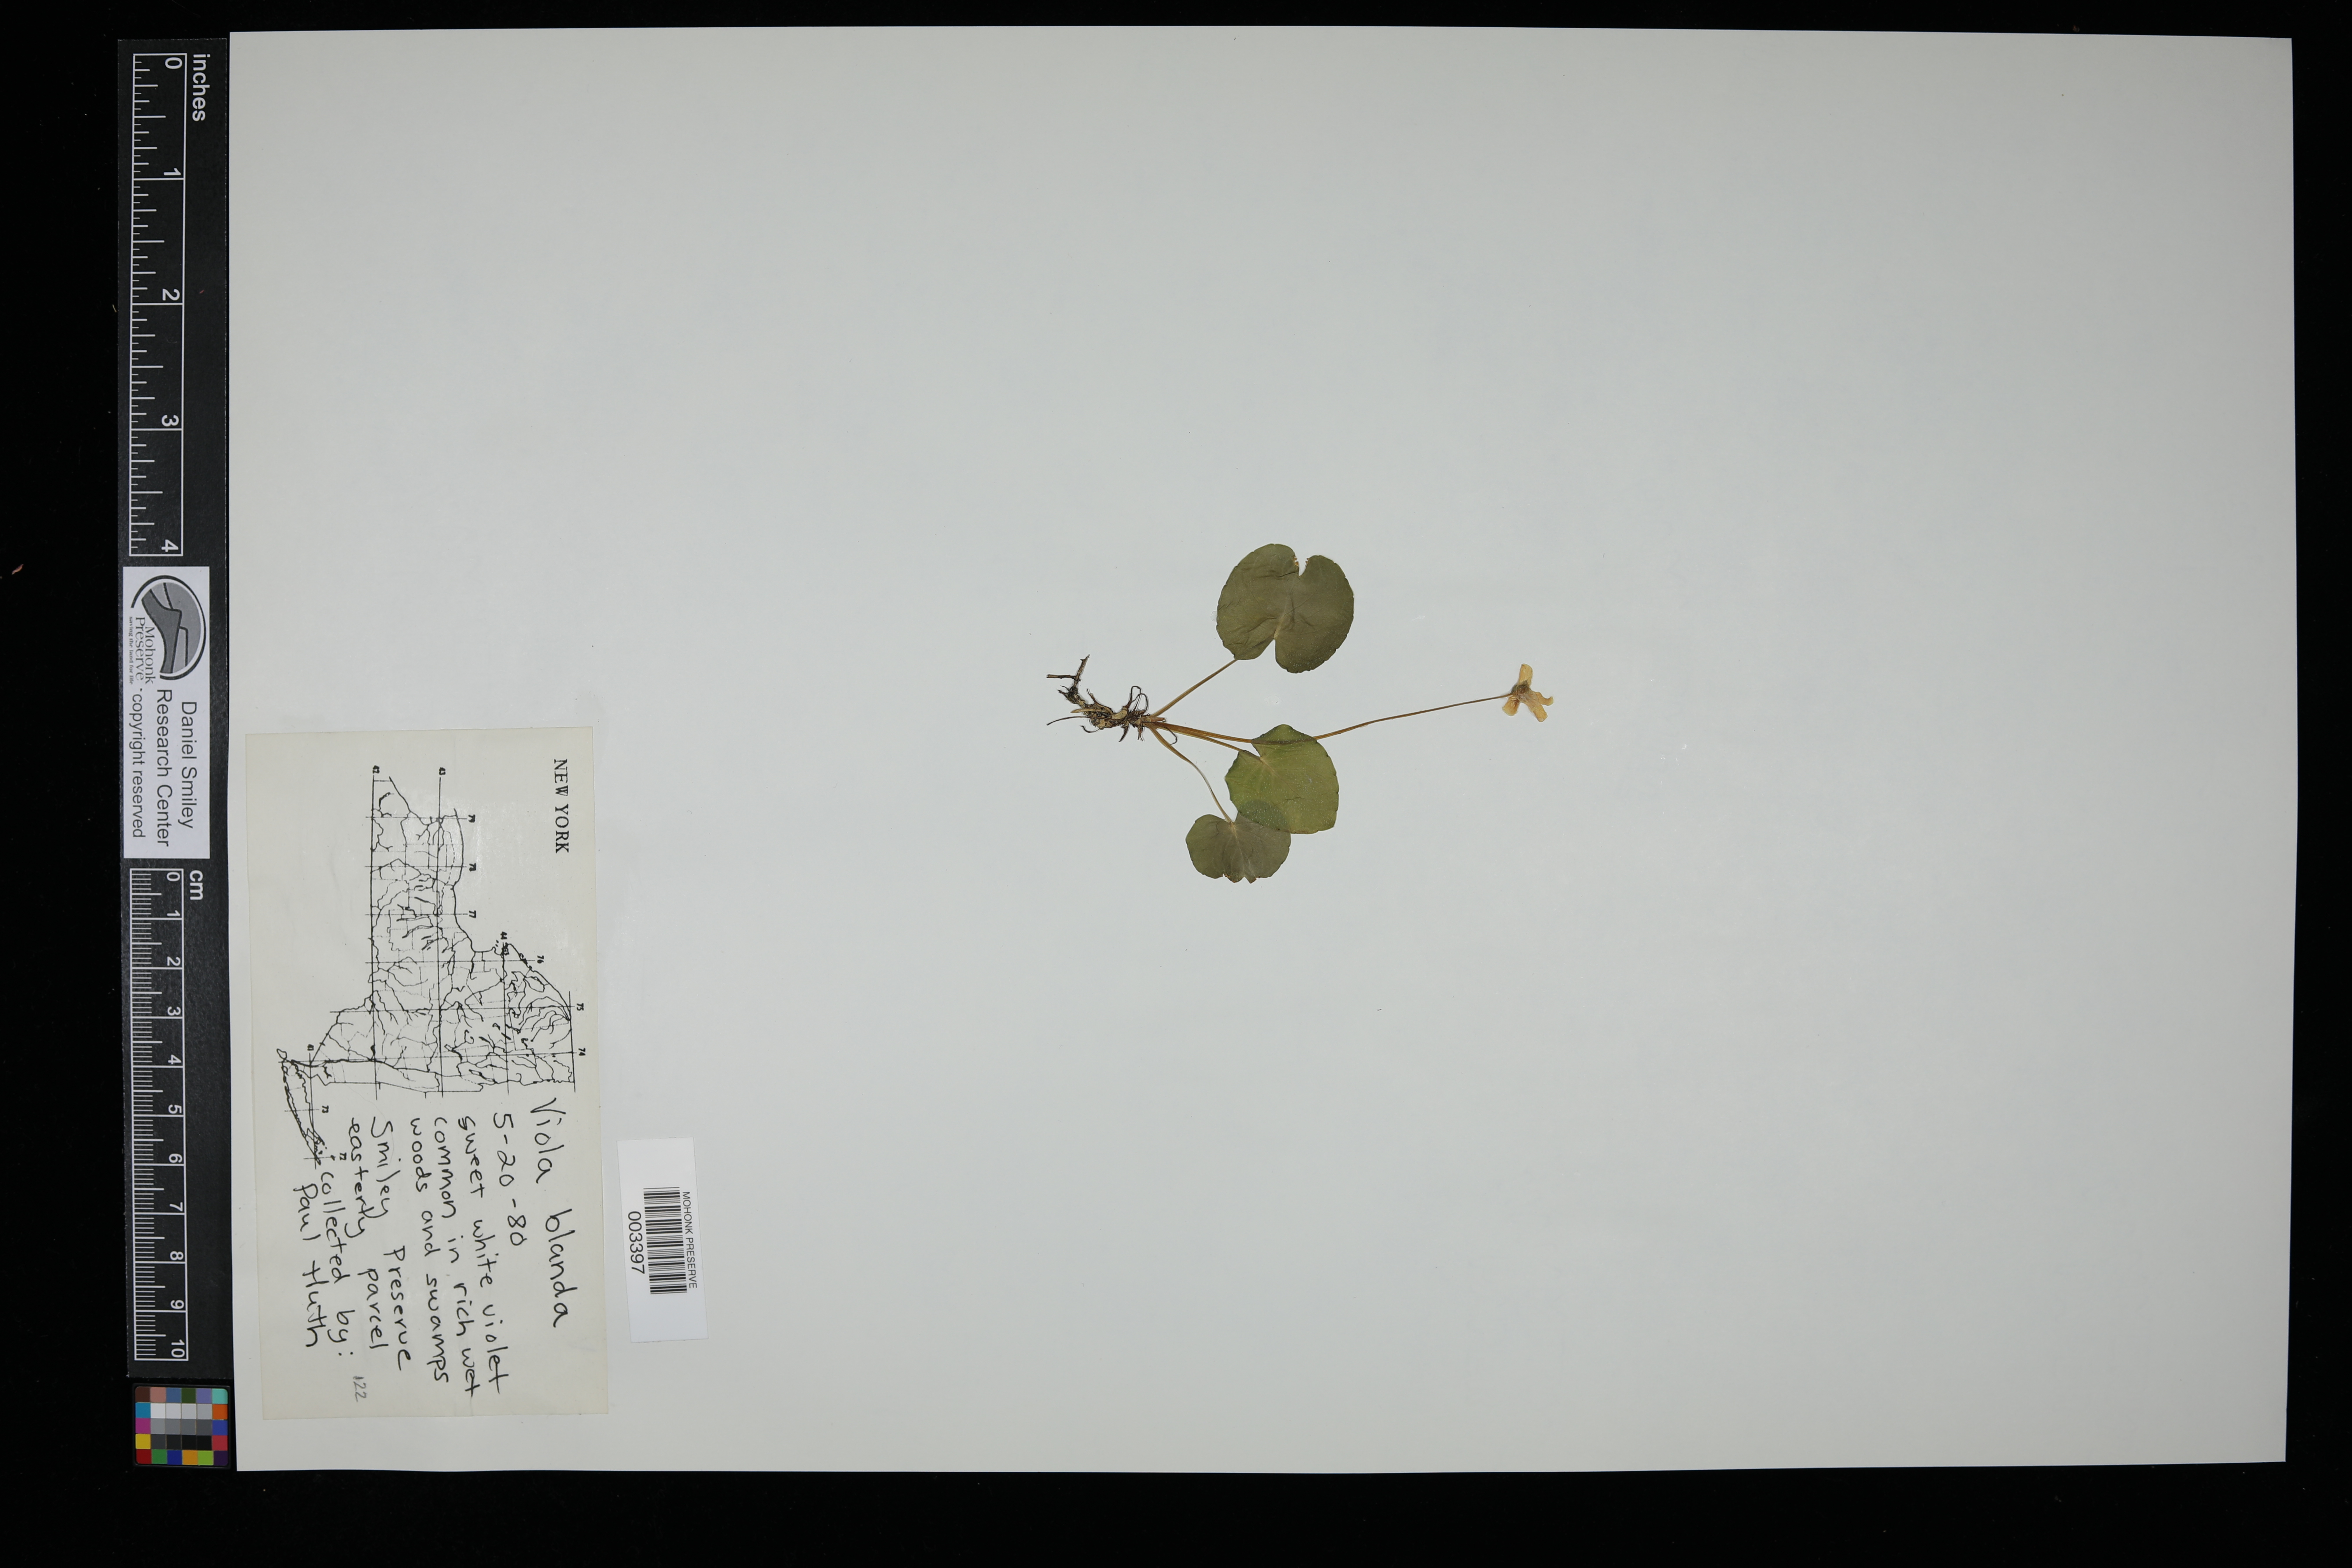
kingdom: Plantae
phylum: Tracheophyta
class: Magnoliopsida
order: Malpighiales
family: Violaceae
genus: Viola
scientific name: Viola blanda
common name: Sweet white violet
